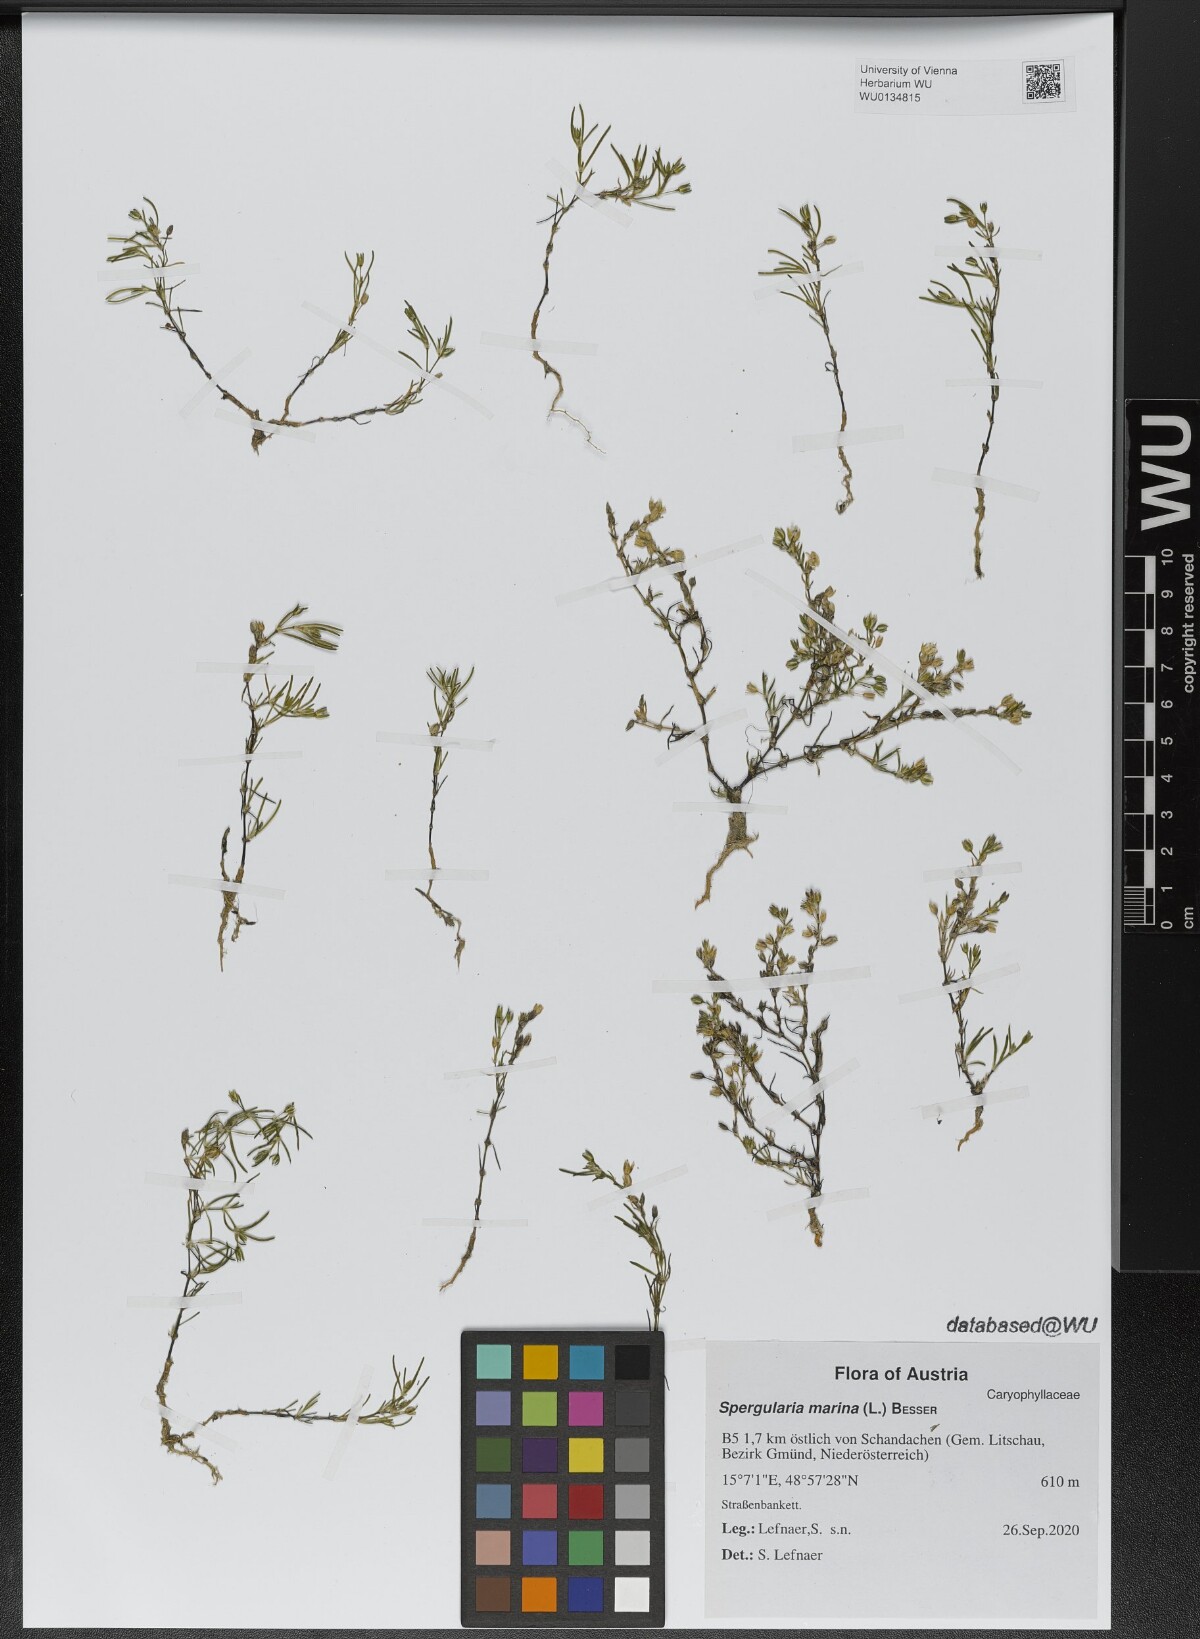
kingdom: Plantae
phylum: Tracheophyta
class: Magnoliopsida
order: Caryophyllales
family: Caryophyllaceae
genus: Spergularia
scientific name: Spergularia marina
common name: Lesser sea-spurrey
